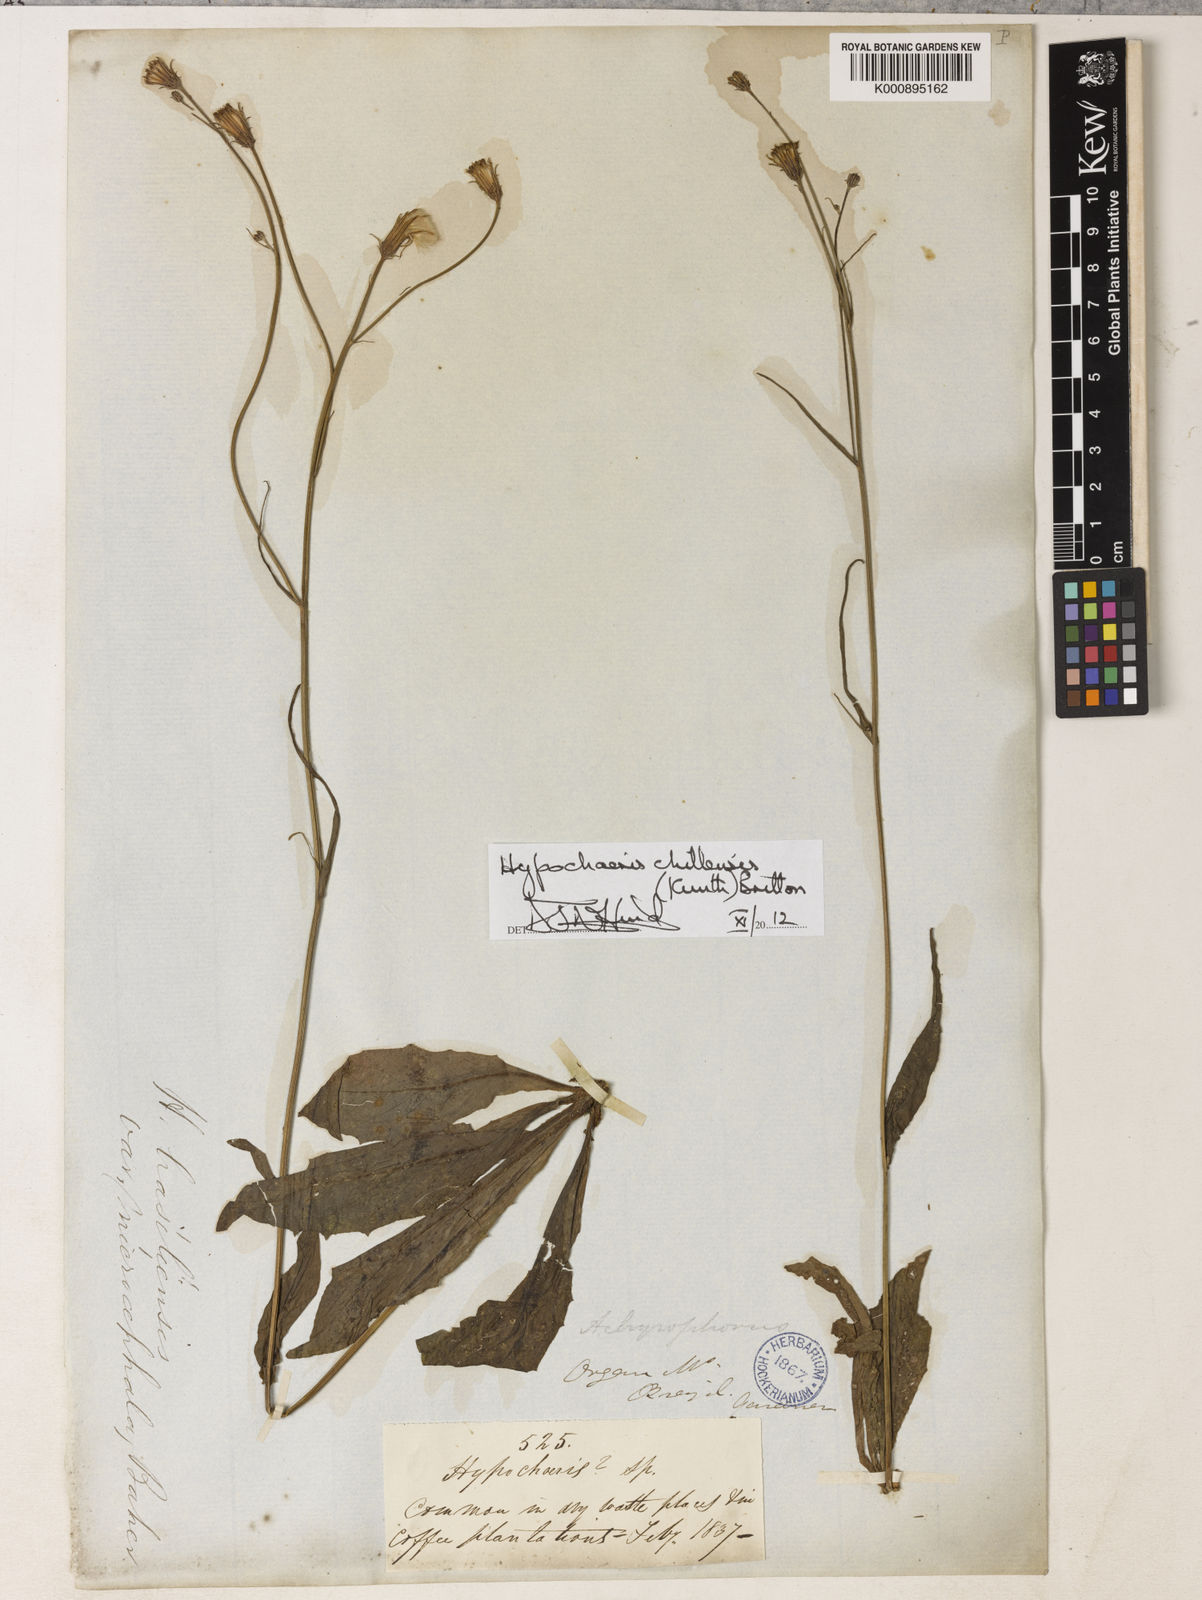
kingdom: Plantae
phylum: Tracheophyta
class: Magnoliopsida
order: Asterales
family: Asteraceae
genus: Hypochaeris
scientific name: Hypochaeris chillensis
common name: Brazilian cat's ear
